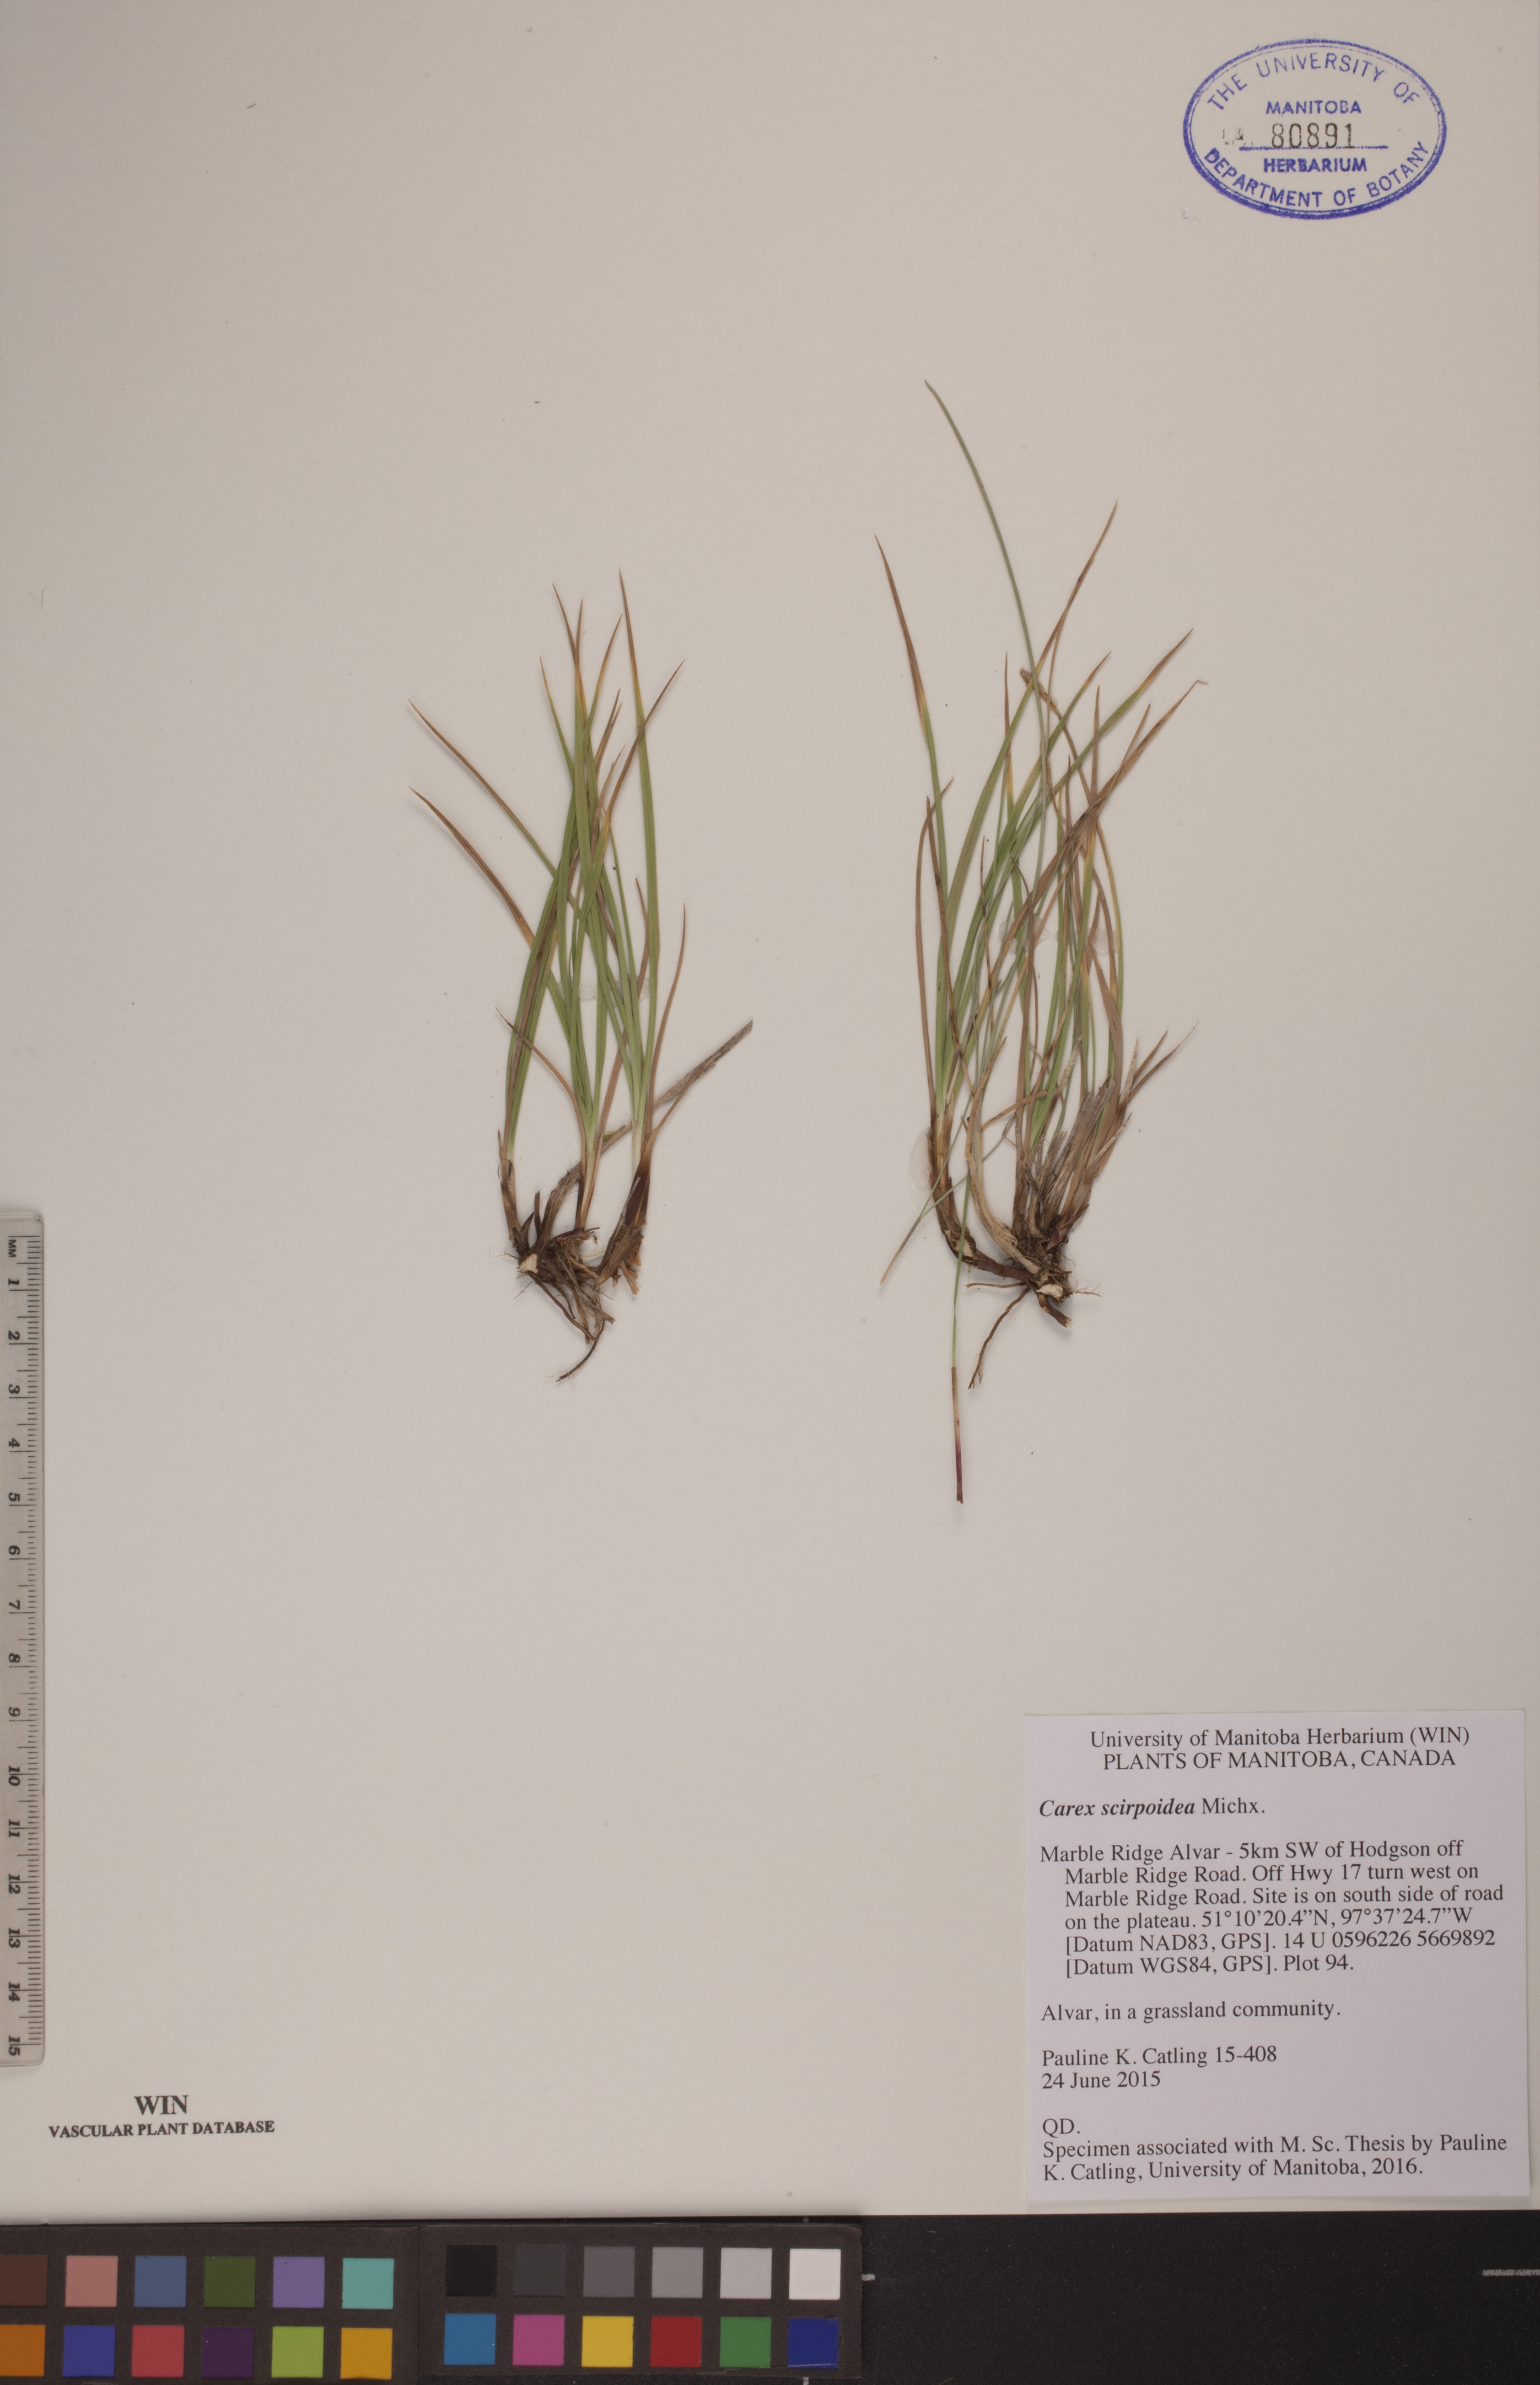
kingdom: Plantae
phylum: Tracheophyta
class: Liliopsida
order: Poales
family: Cyperaceae
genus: Carex
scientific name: Carex scirpoidea
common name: Canada single-spike sedge
